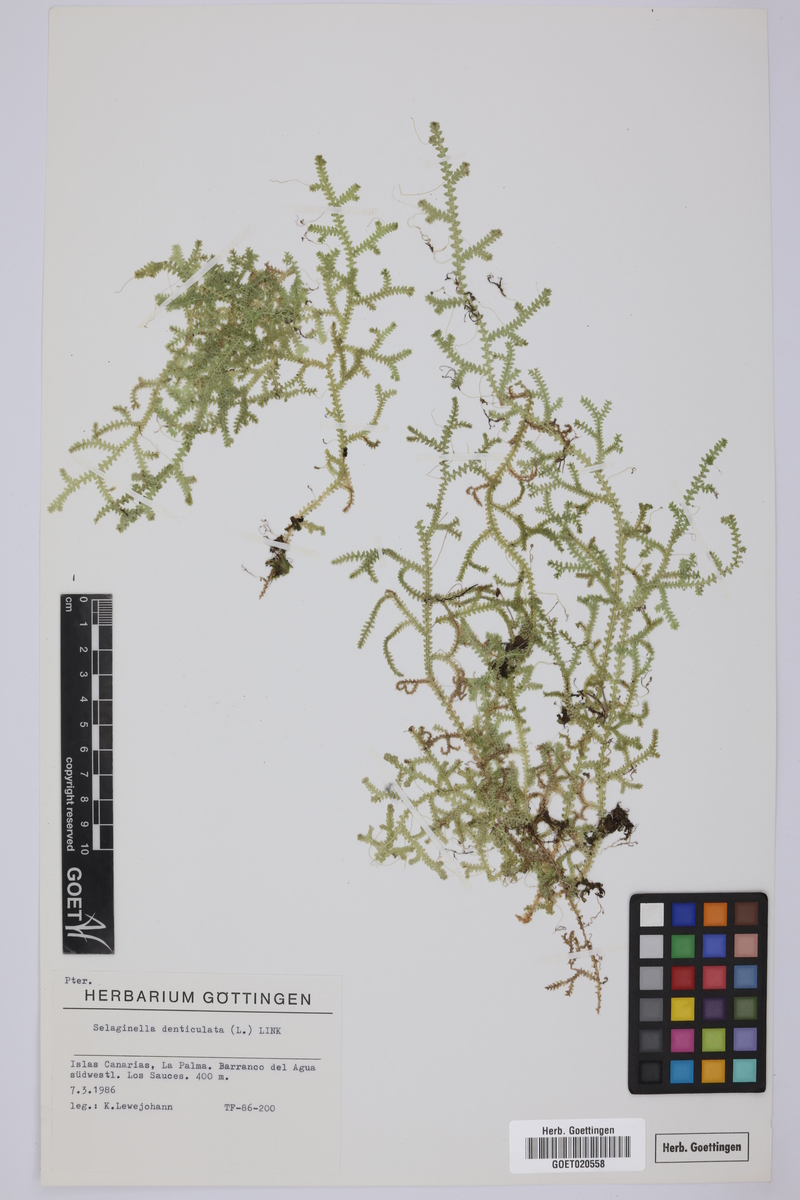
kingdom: Plantae
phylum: Tracheophyta
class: Lycopodiopsida
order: Selaginellales
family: Selaginellaceae
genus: Selaginella
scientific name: Selaginella denticulata
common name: Toothed-leaved clubmoss
